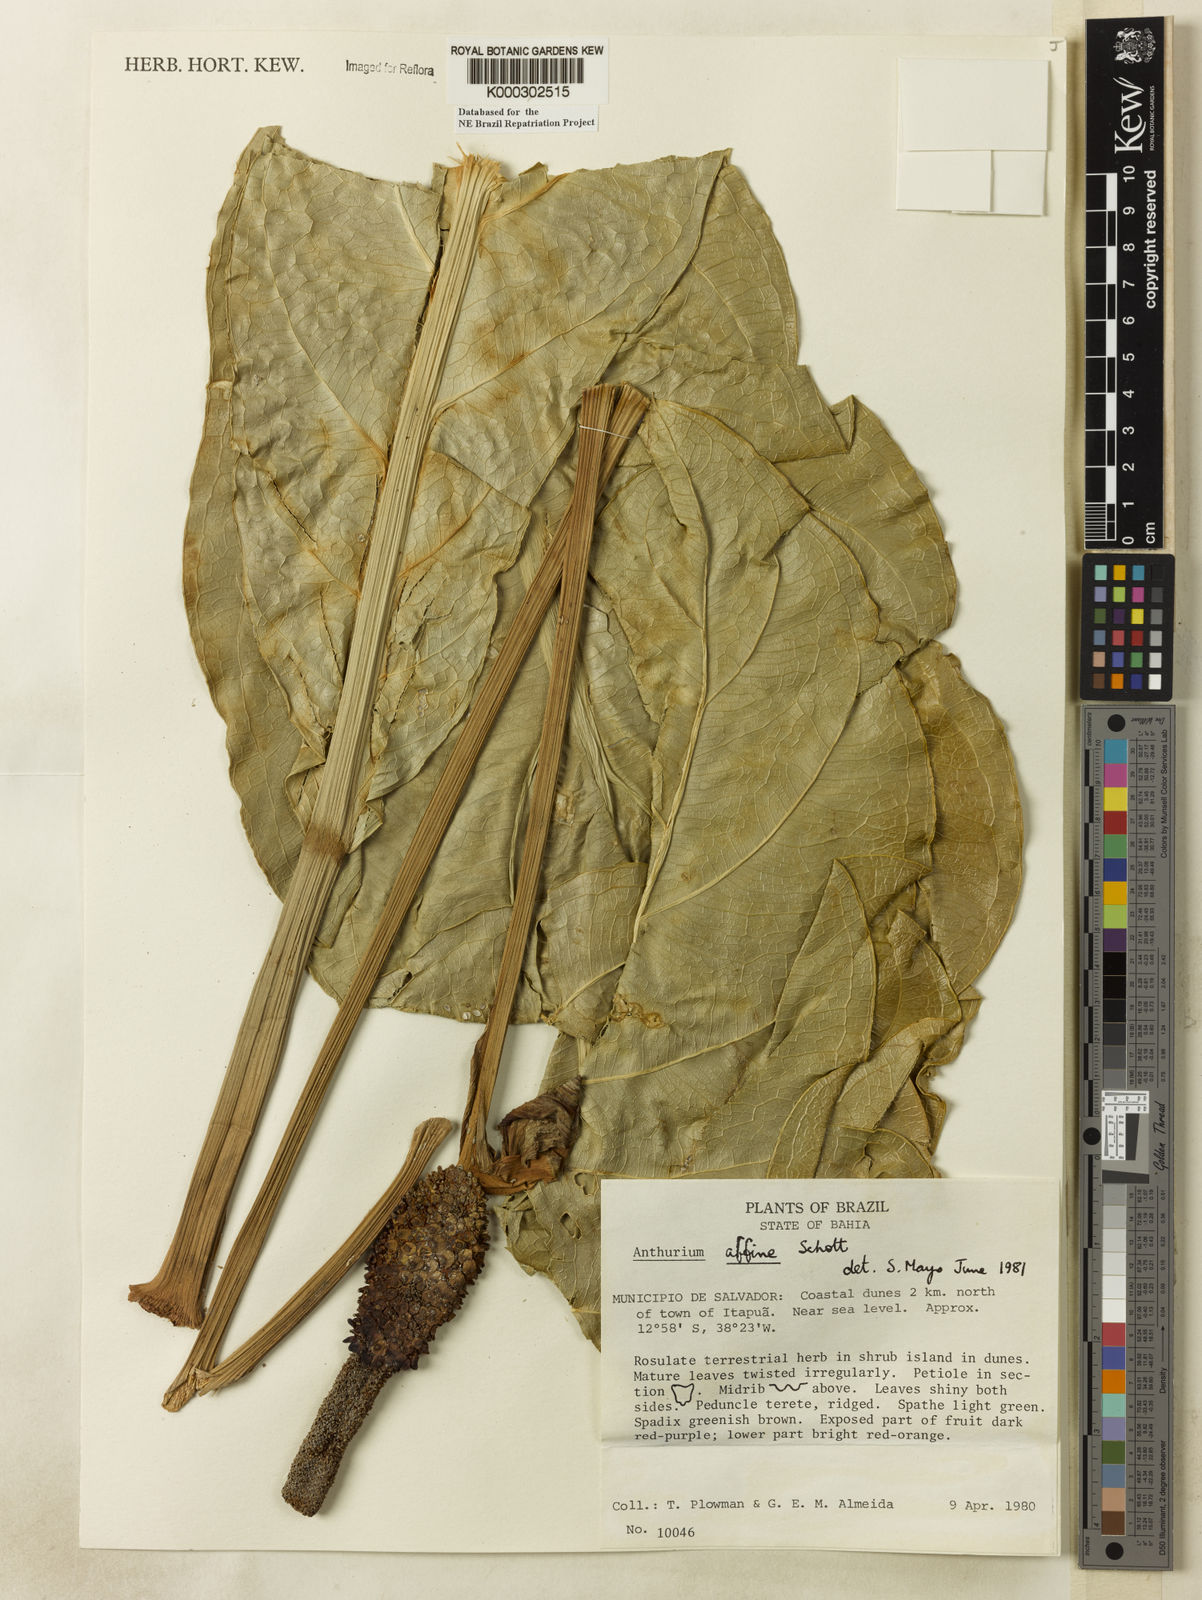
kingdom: Plantae
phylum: Tracheophyta
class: Liliopsida
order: Alismatales
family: Araceae
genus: Anthurium
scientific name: Anthurium affine
